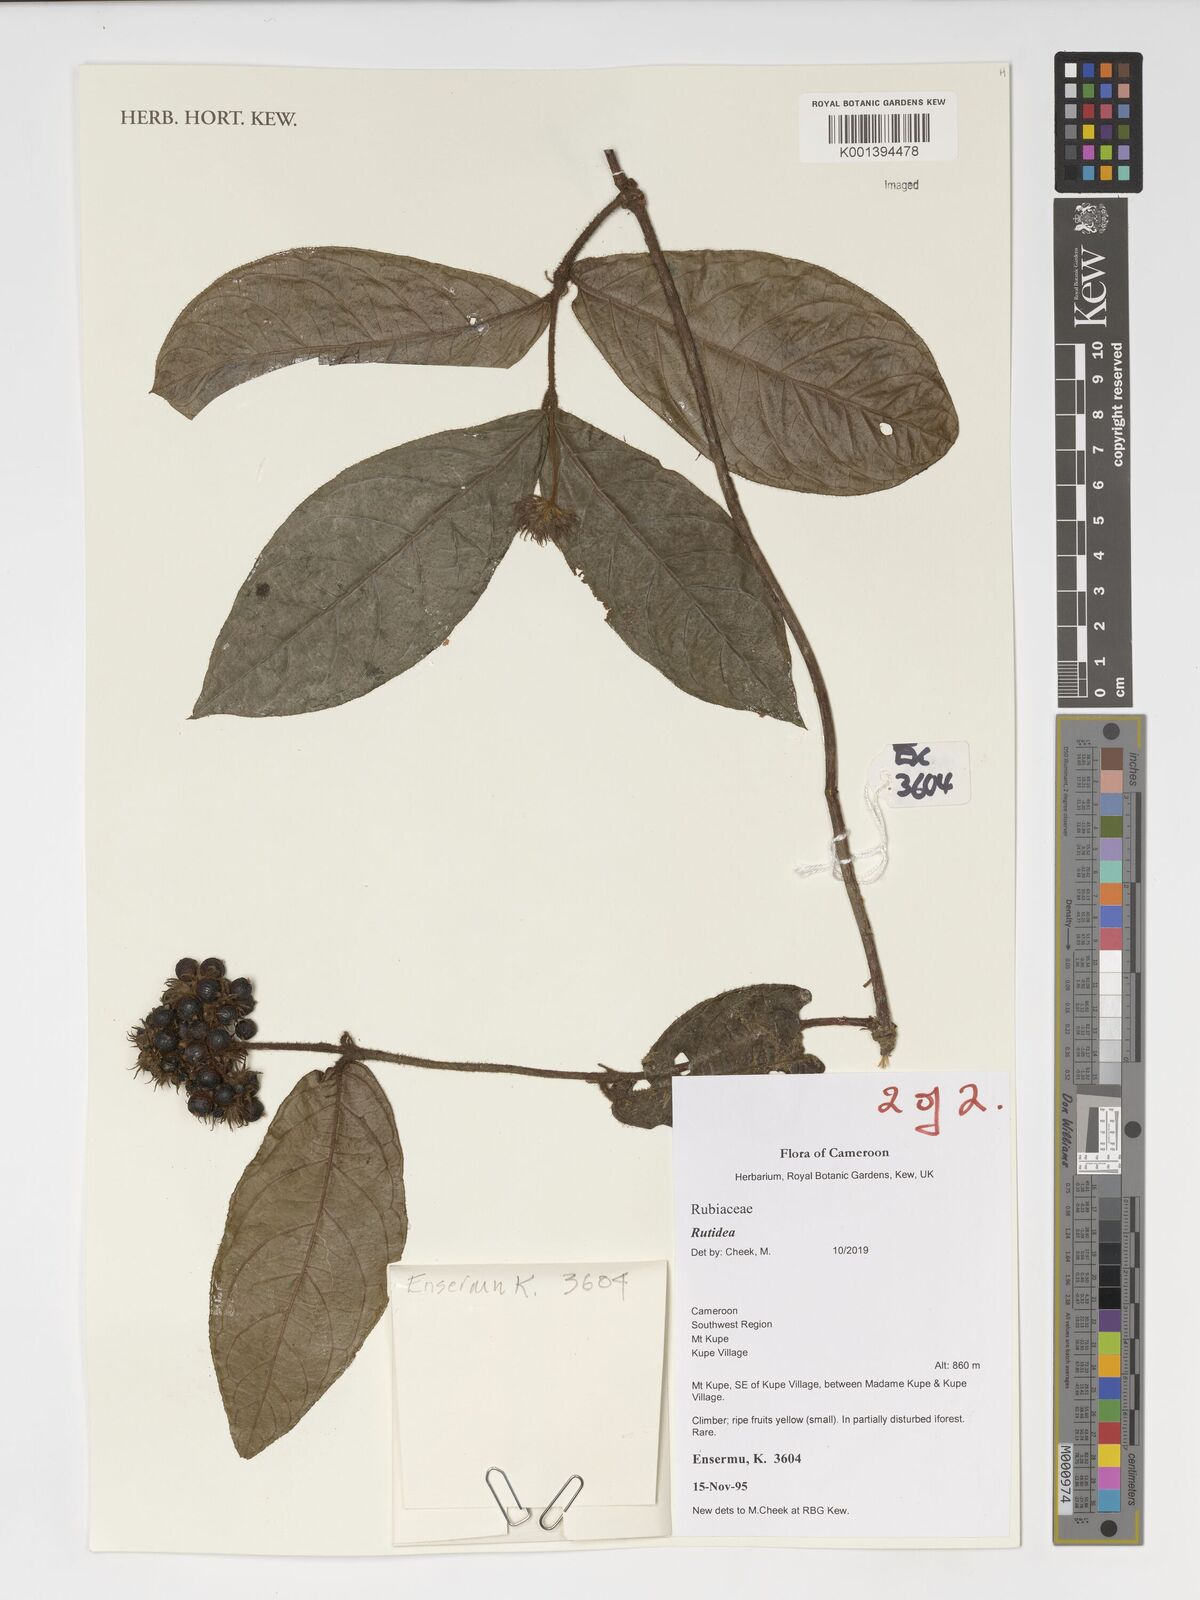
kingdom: Plantae
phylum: Tracheophyta
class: Magnoliopsida
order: Gentianales
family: Rubiaceae
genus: Rutidea
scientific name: Rutidea
